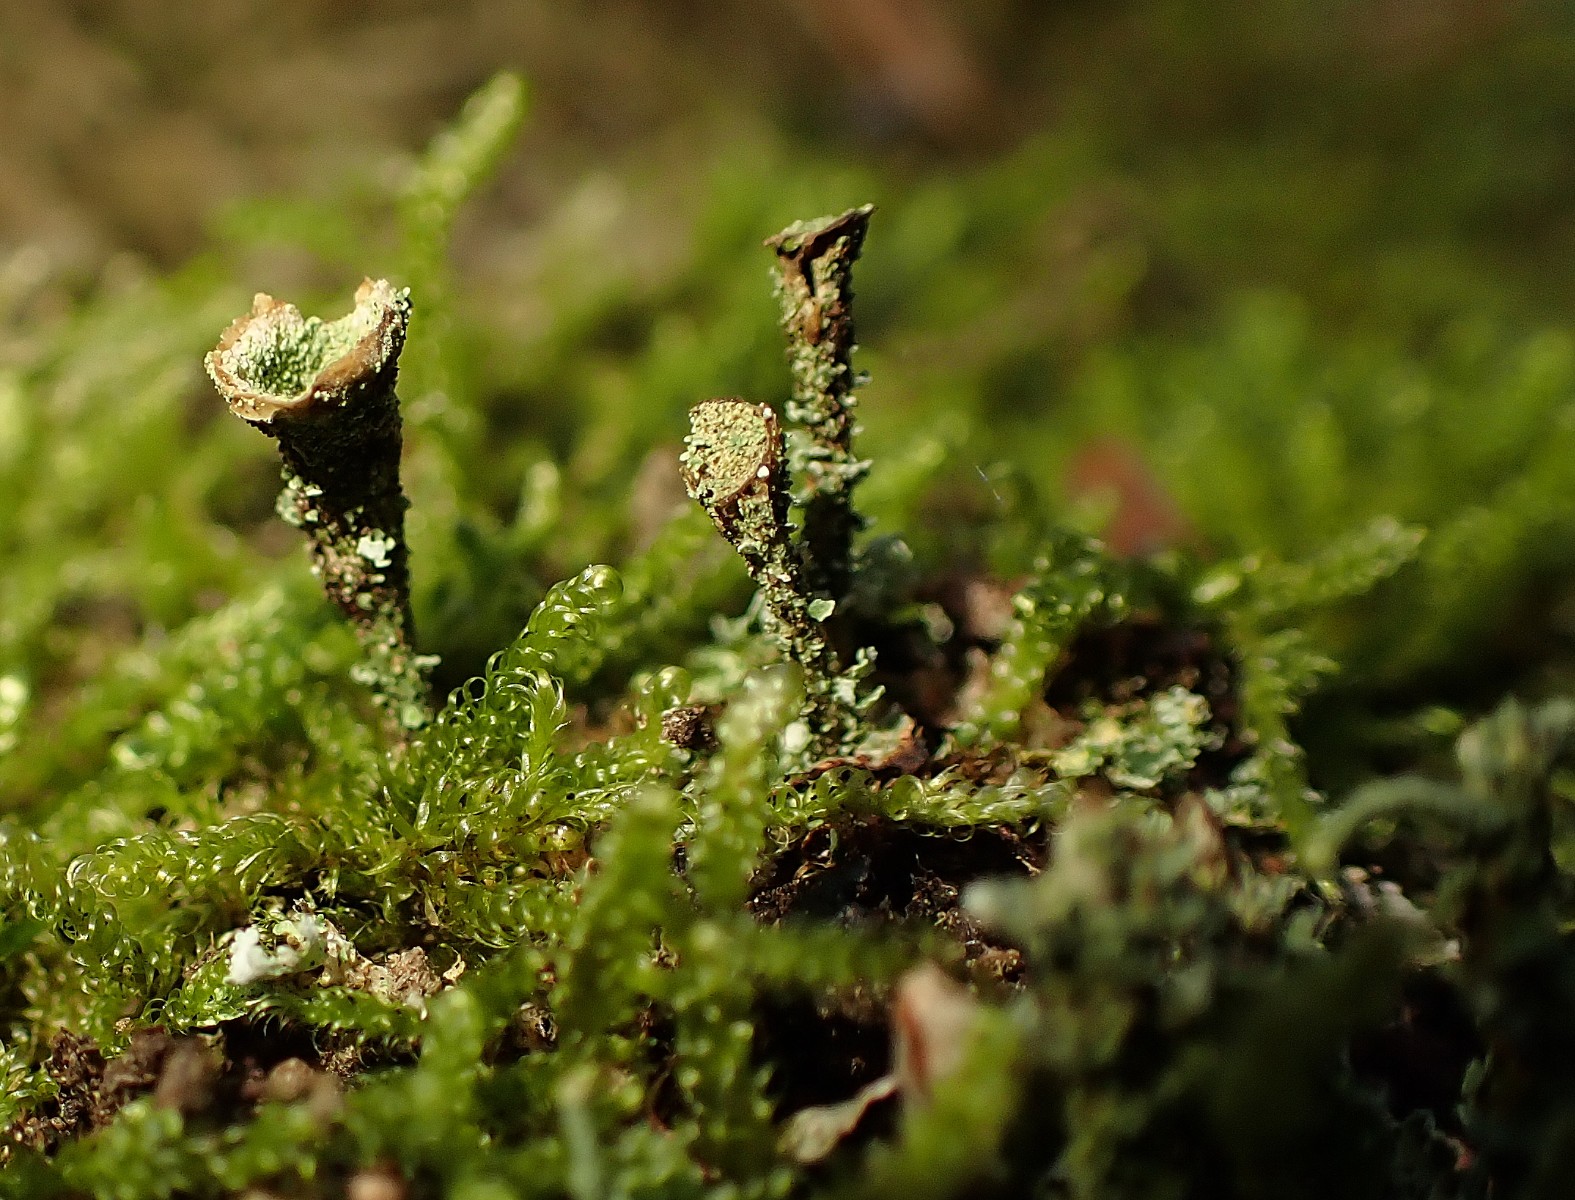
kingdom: Fungi
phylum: Ascomycota
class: Lecanoromycetes
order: Lecanorales
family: Cladoniaceae
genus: Cladonia
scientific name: Cladonia
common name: brungrøn bægerlav
